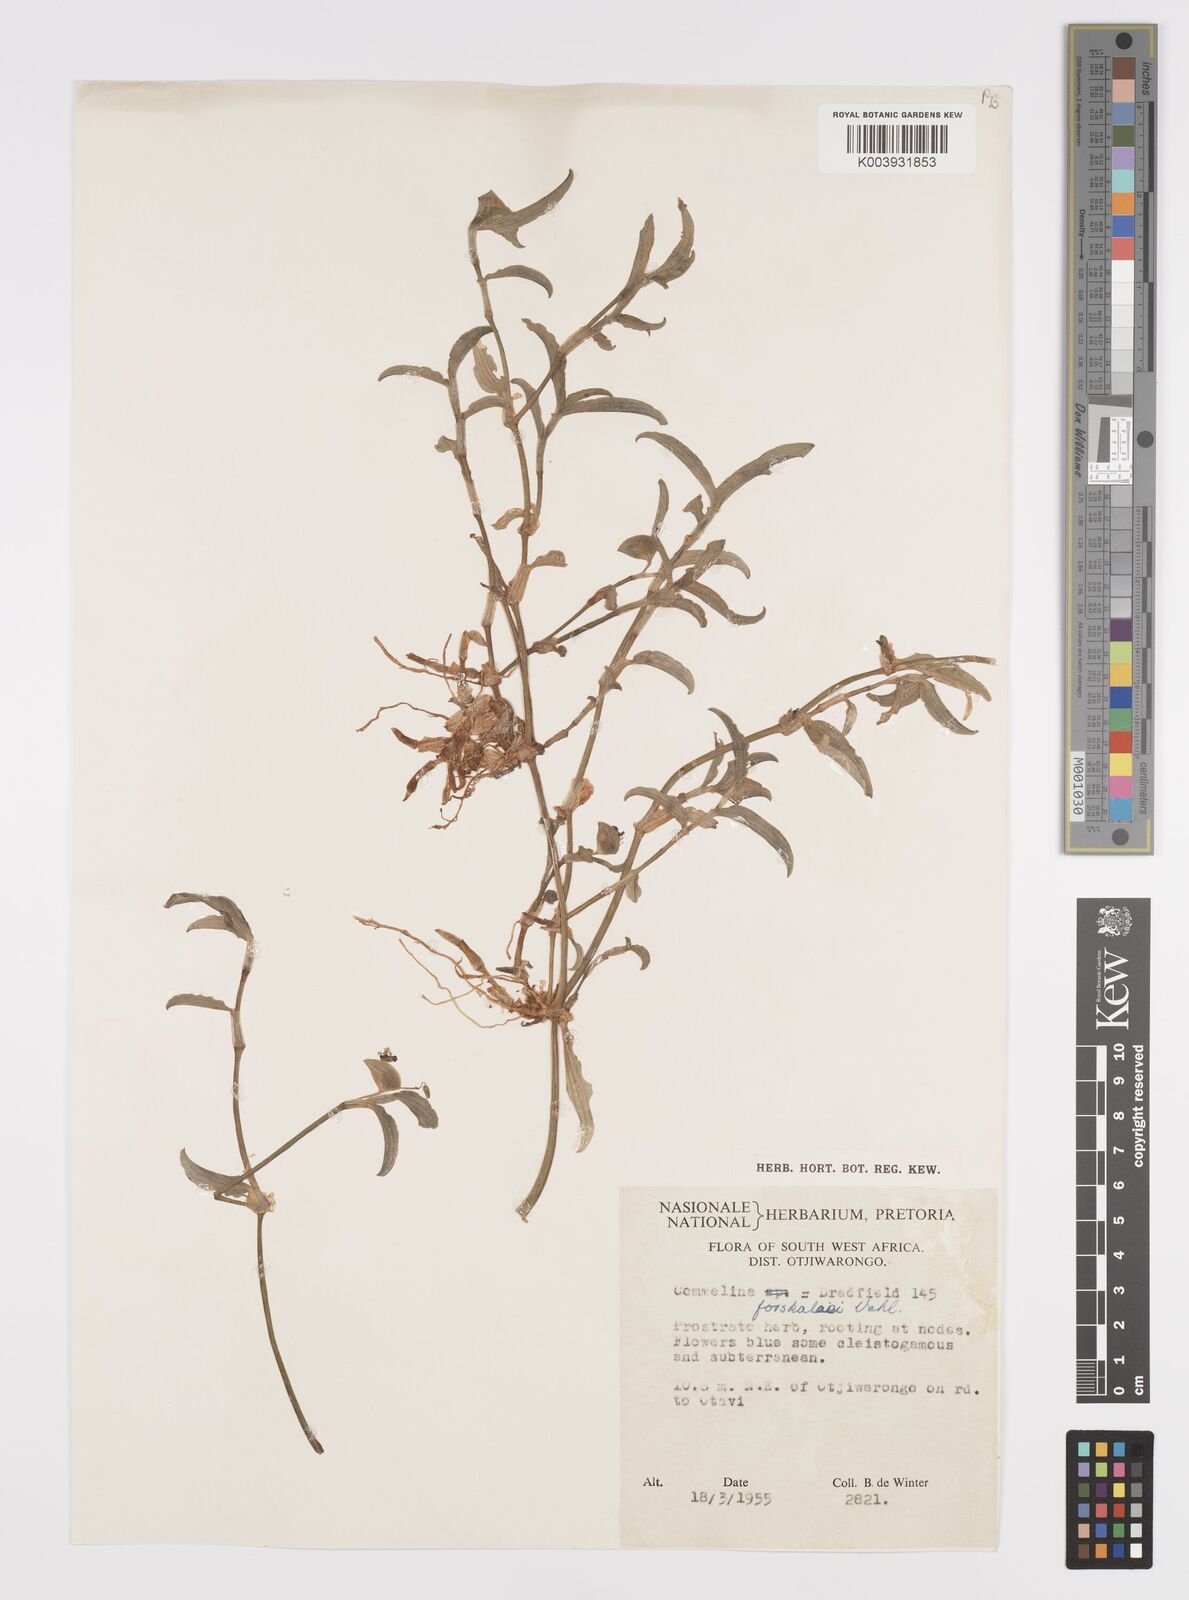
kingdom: Plantae
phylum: Tracheophyta
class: Liliopsida
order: Commelinales
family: Commelinaceae
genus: Commelina
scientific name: Commelina forskaolii
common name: Rat's ear
